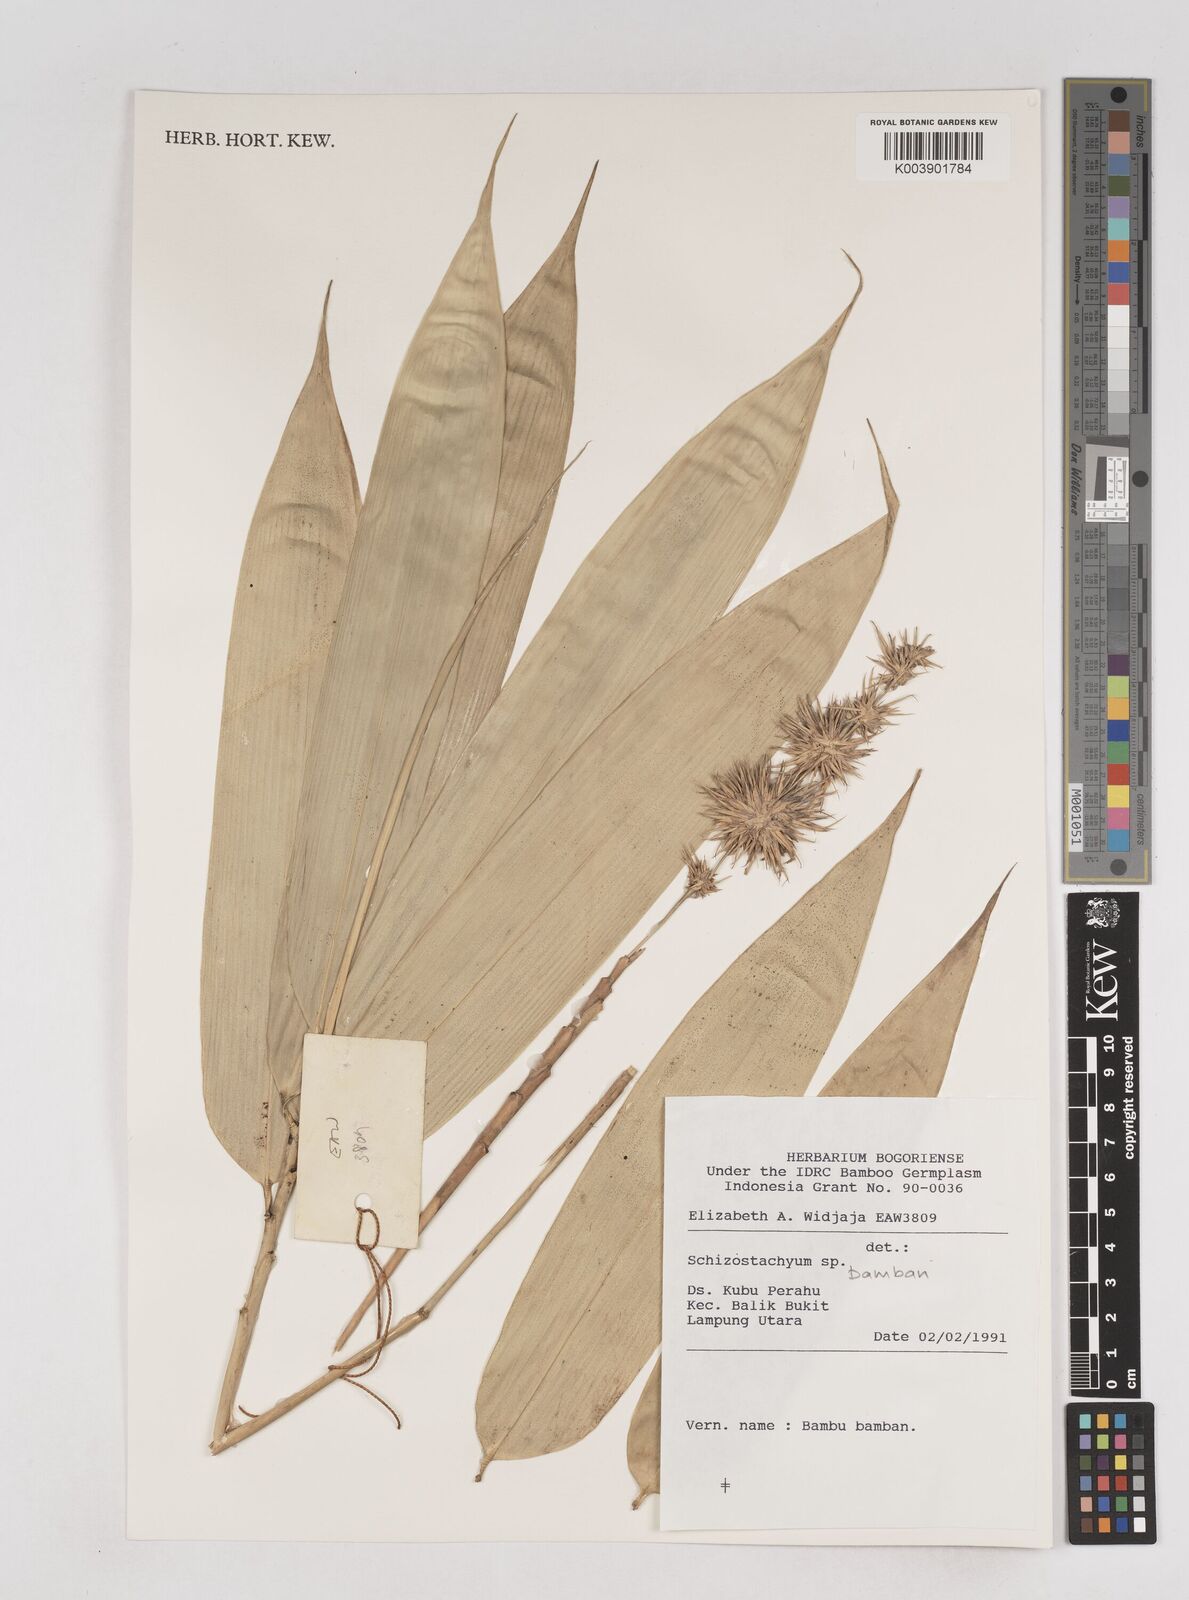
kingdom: Plantae
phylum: Tracheophyta
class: Liliopsida
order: Poales
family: Poaceae
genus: Schizostachyum
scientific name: Schizostachyum bamban
